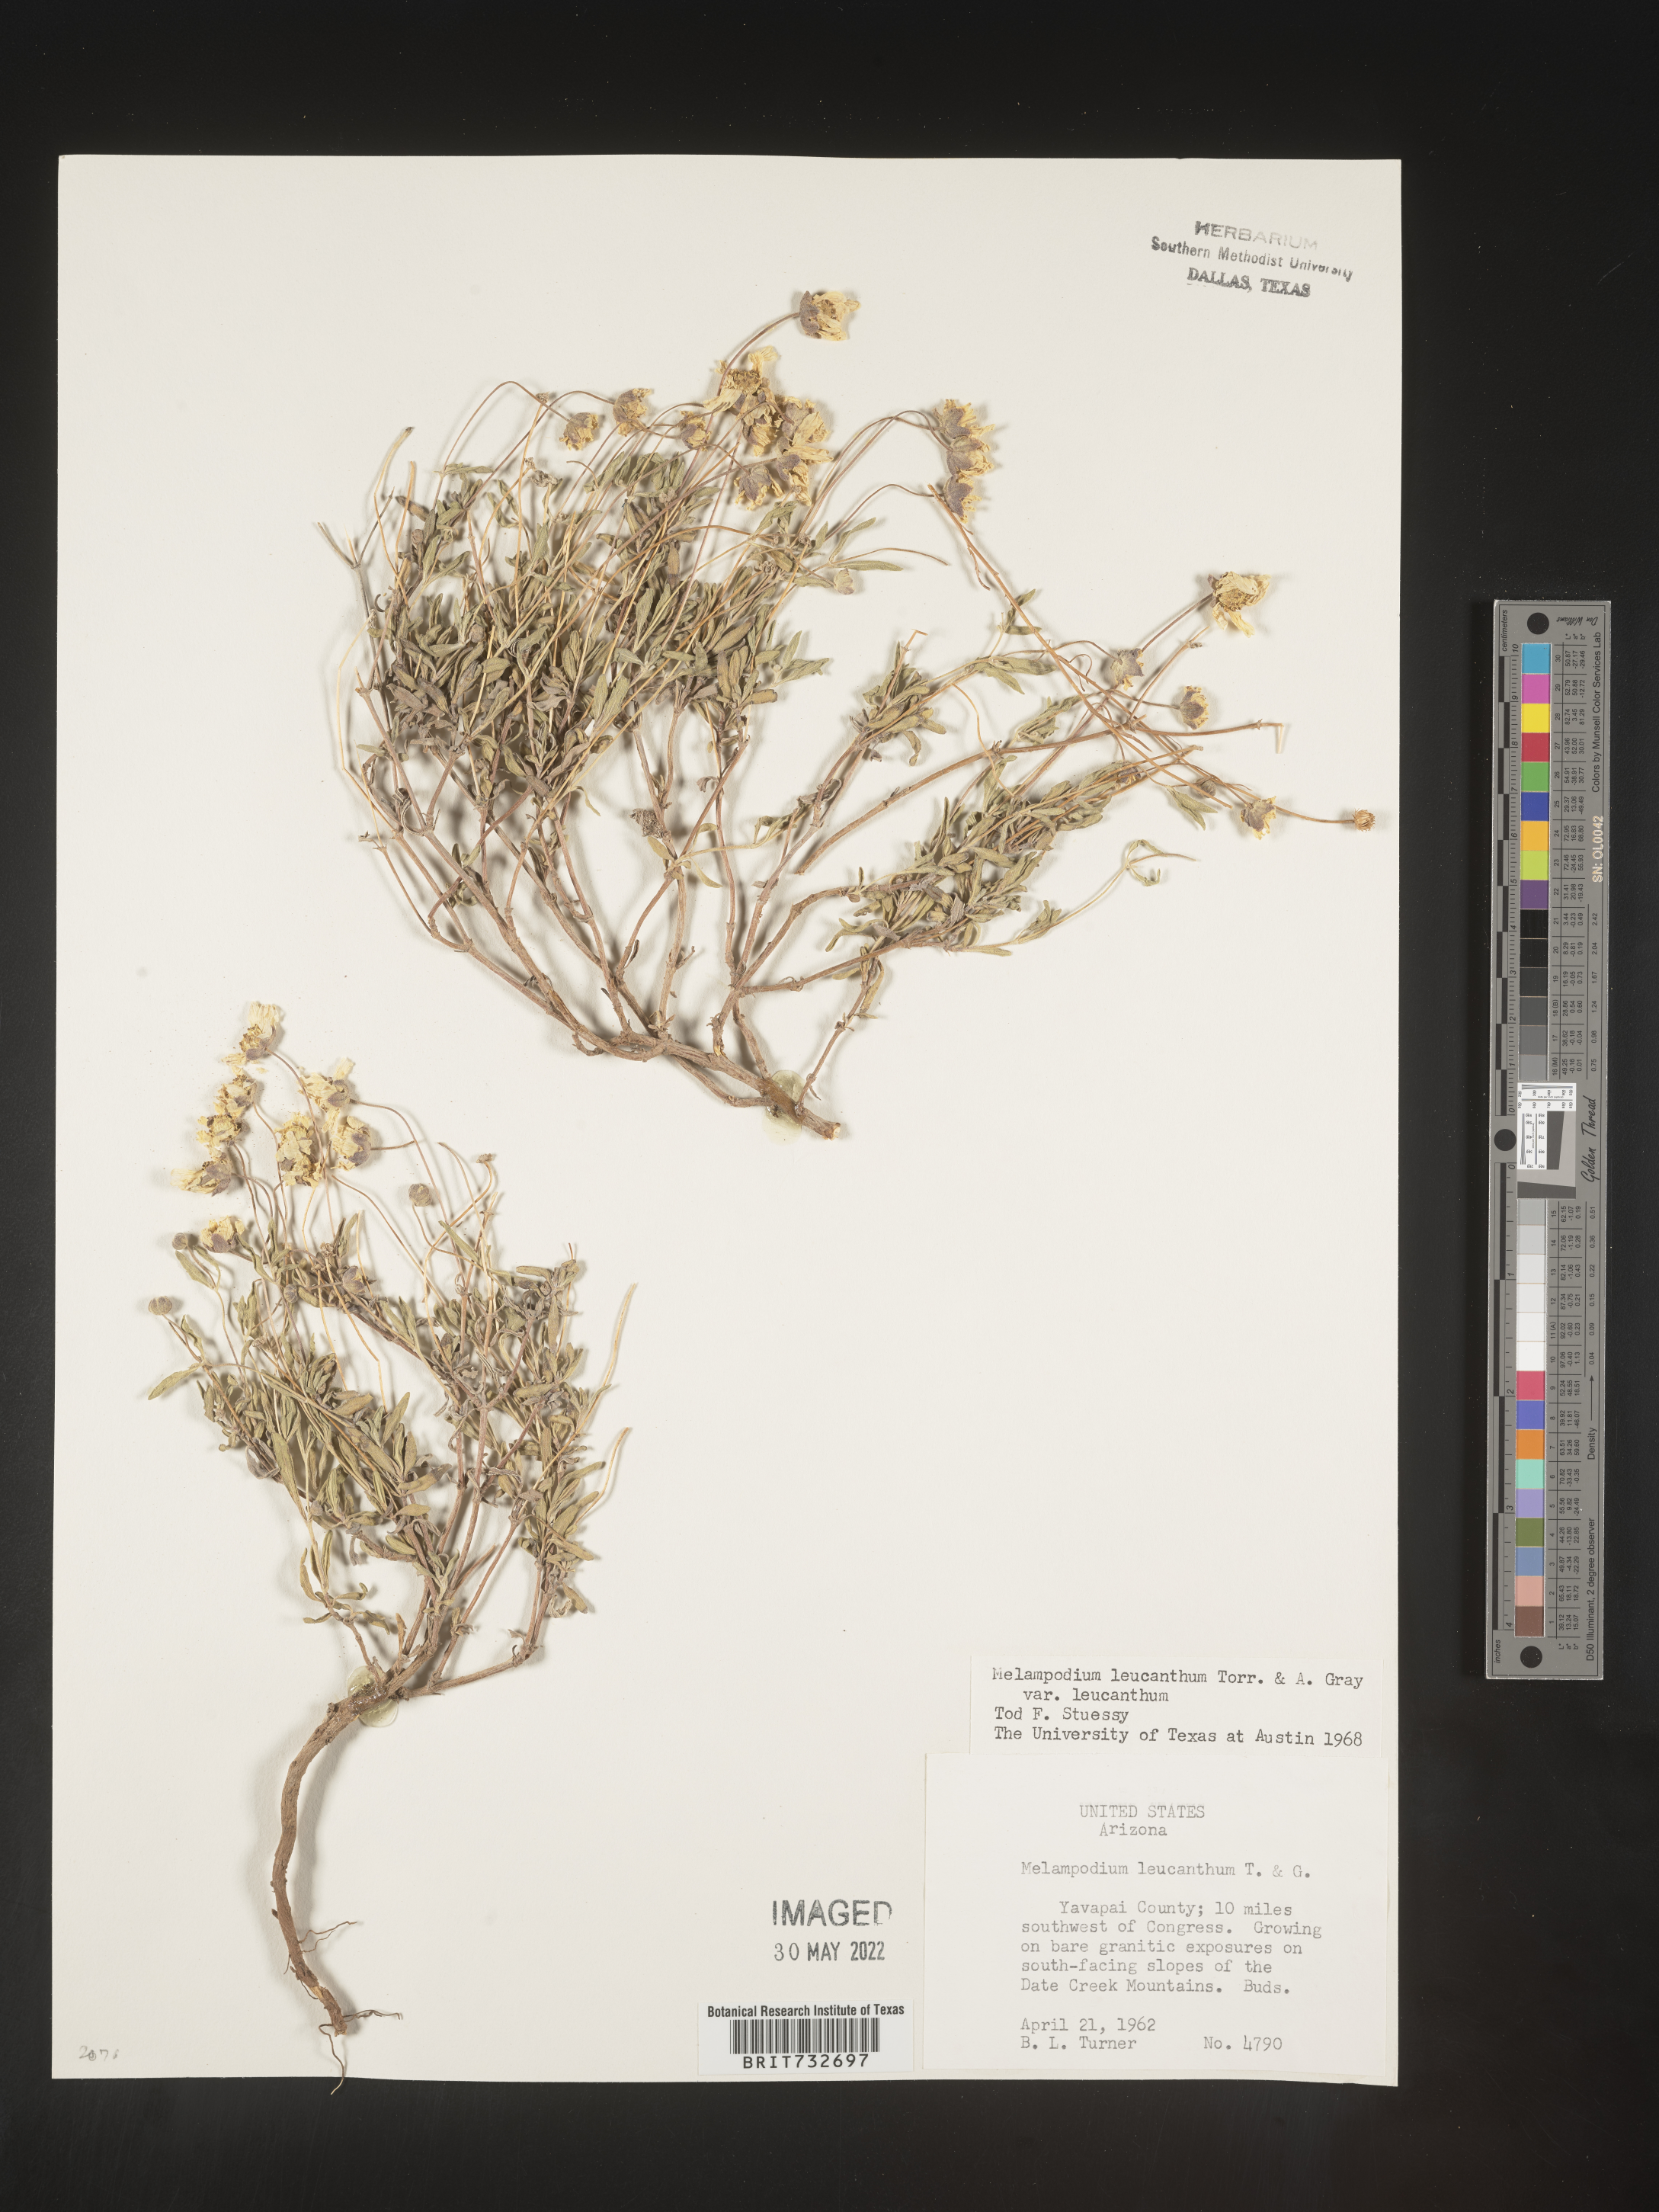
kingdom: Plantae
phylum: Tracheophyta
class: Magnoliopsida
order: Asterales
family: Asteraceae
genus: Melampodium
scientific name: Melampodium leucanthum
